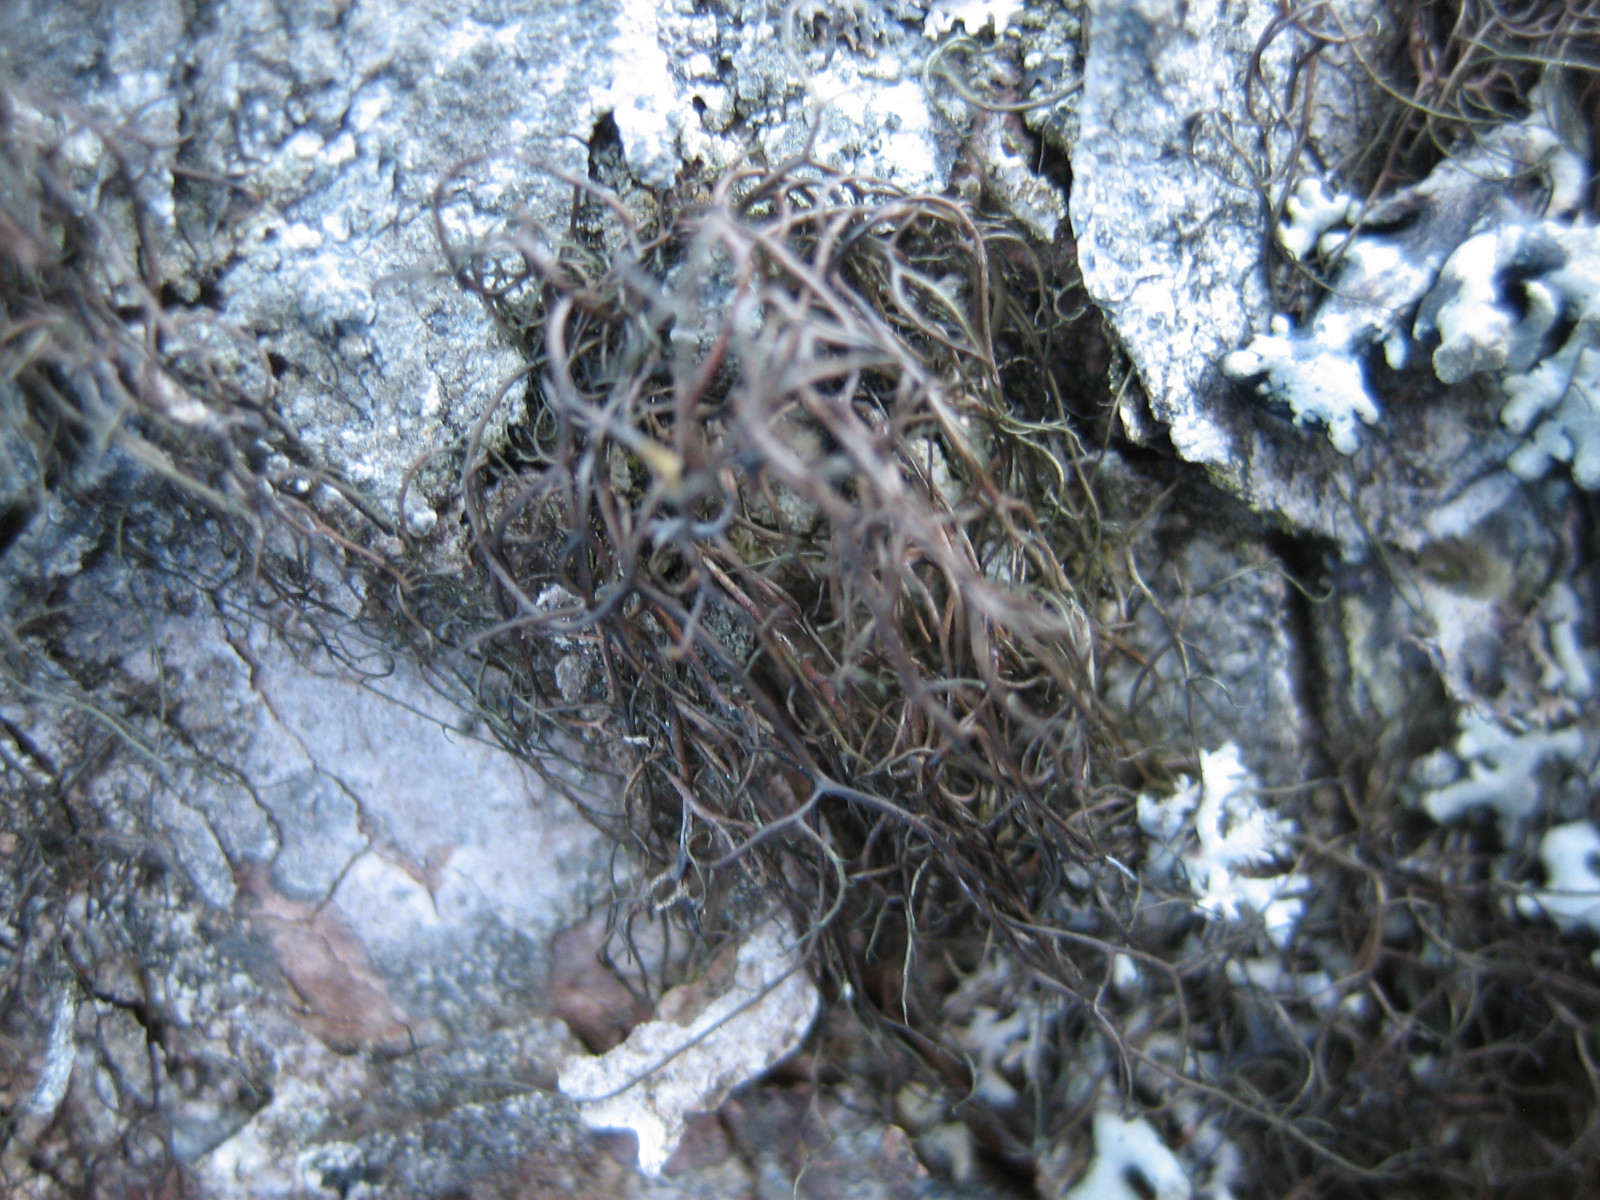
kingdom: Fungi
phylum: Ascomycota
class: Lecanoromycetes
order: Lecanorales
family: Parmeliaceae
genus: Bryoria
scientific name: Bryoria fuscescens
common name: almindelig mankelav
